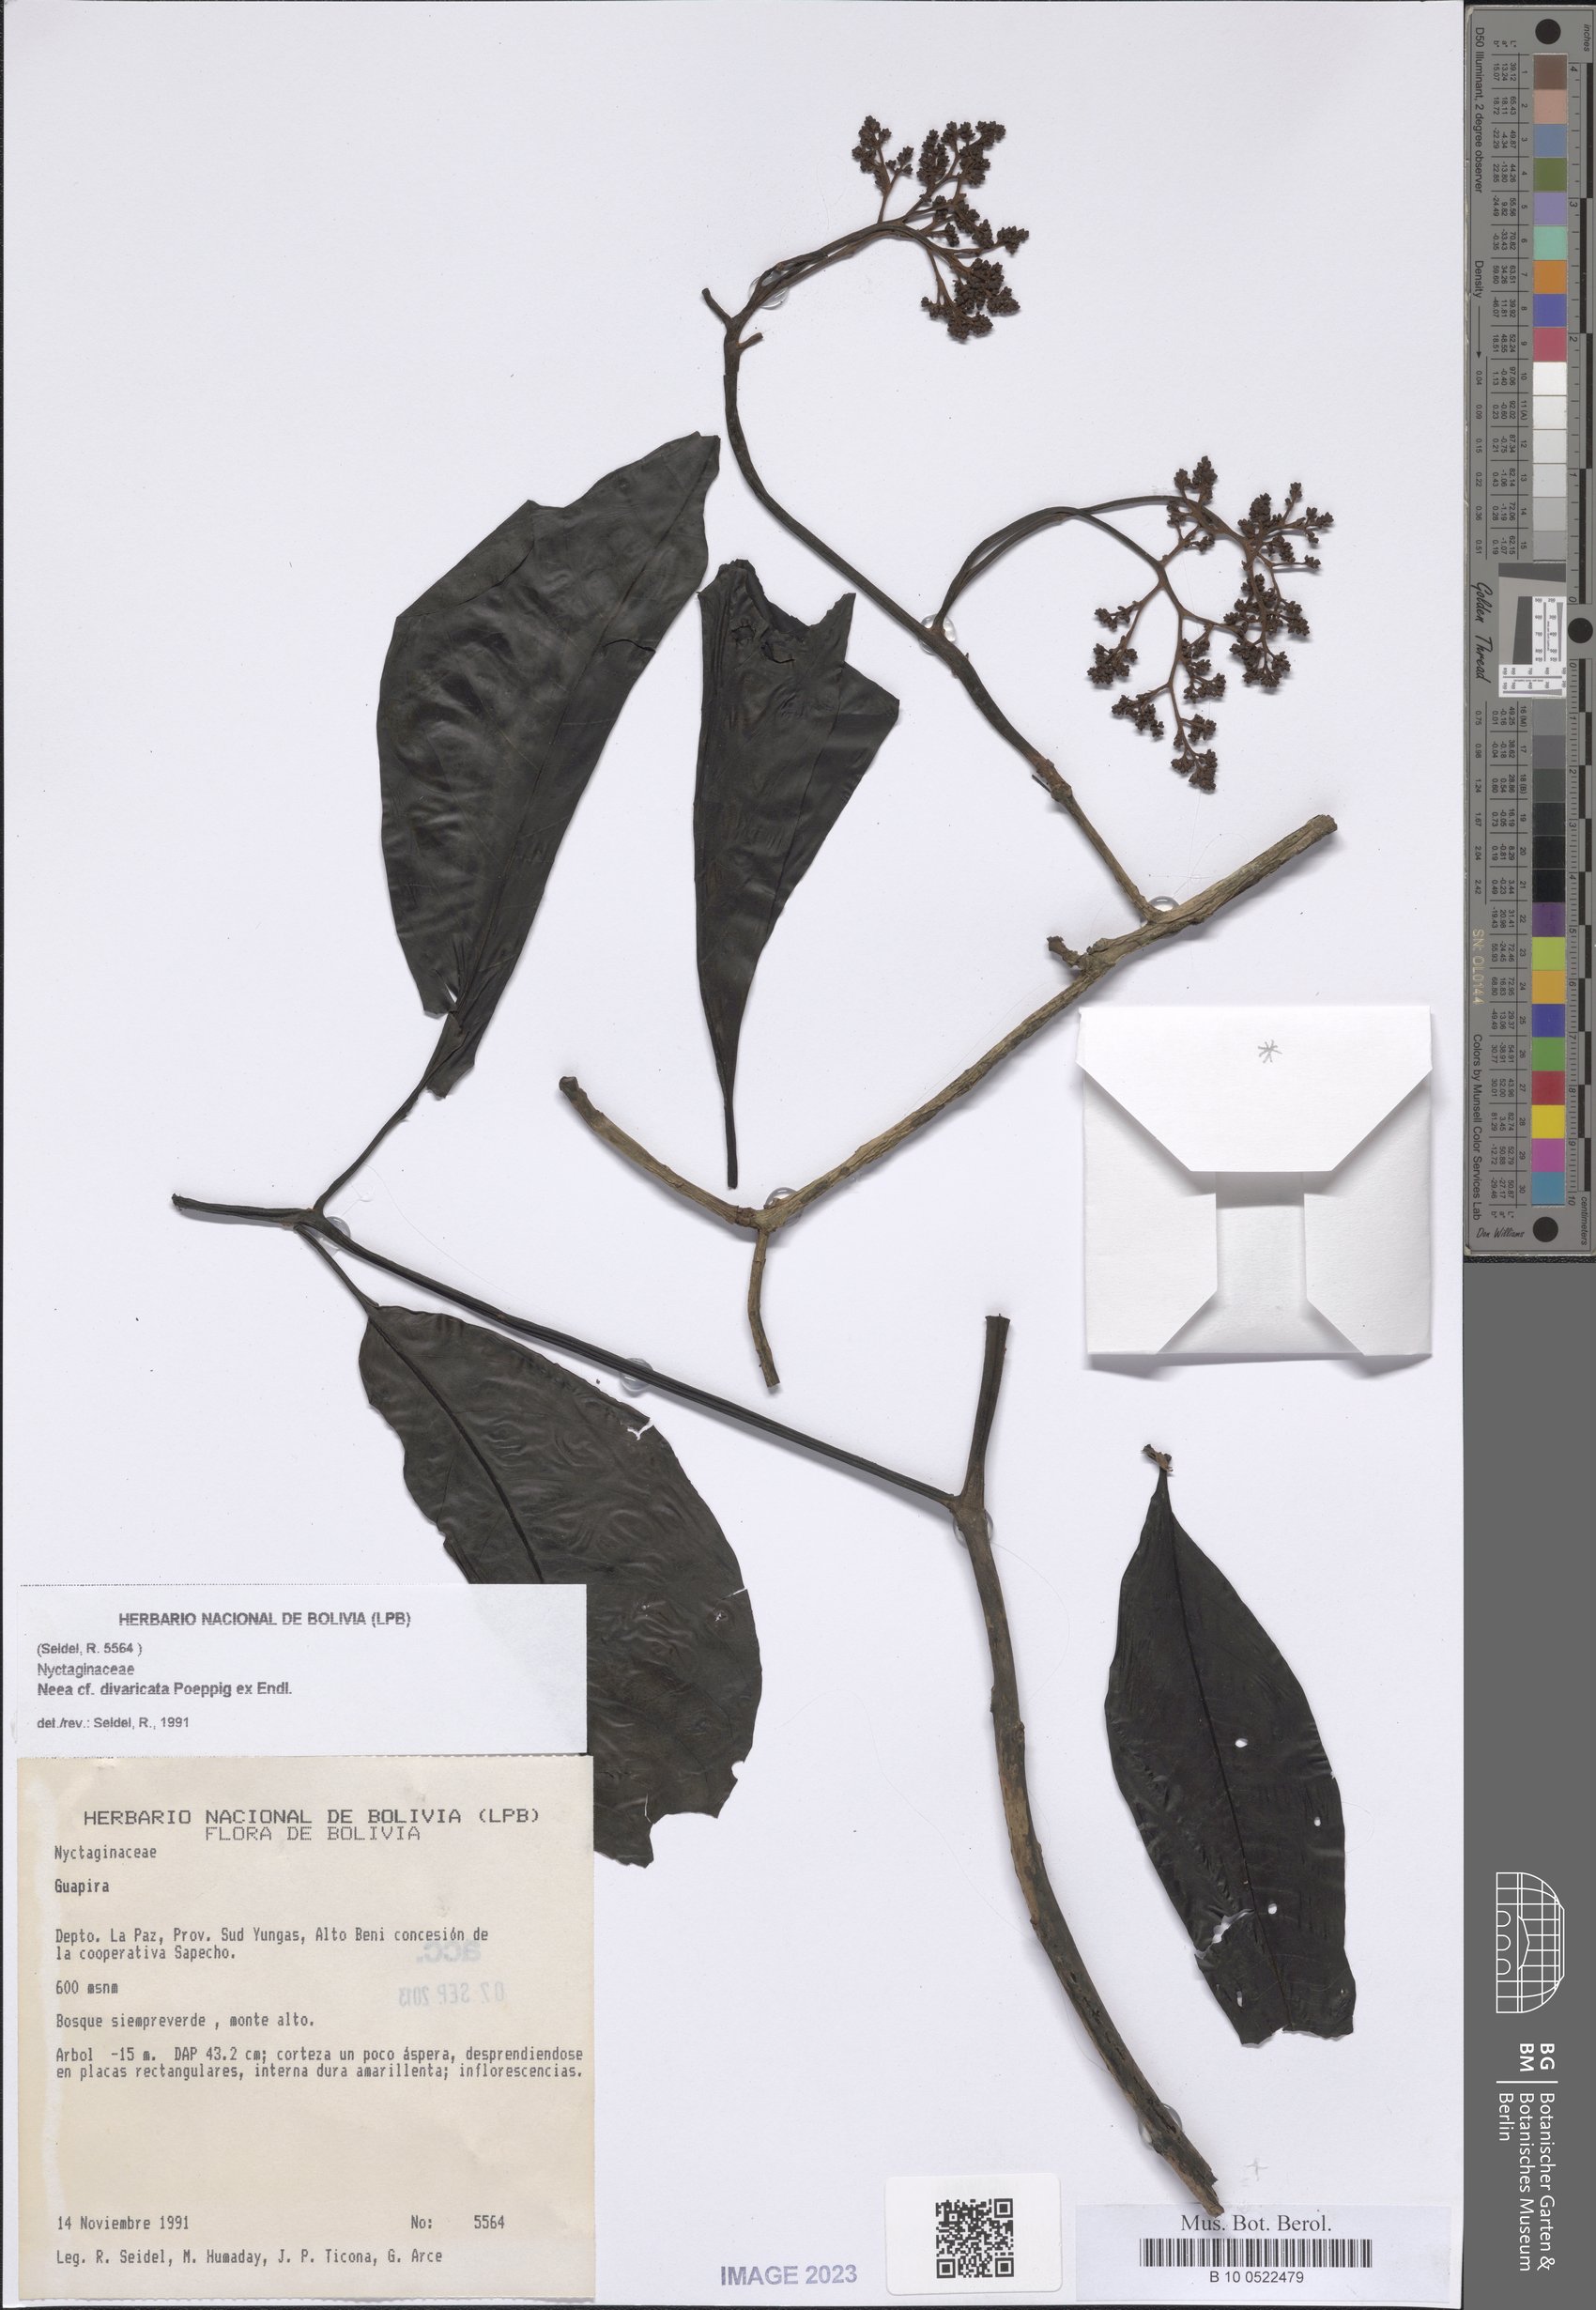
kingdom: Plantae
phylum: Tracheophyta
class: Magnoliopsida
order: Caryophyllales
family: Nyctaginaceae
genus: Neea
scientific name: Neea divaricata
